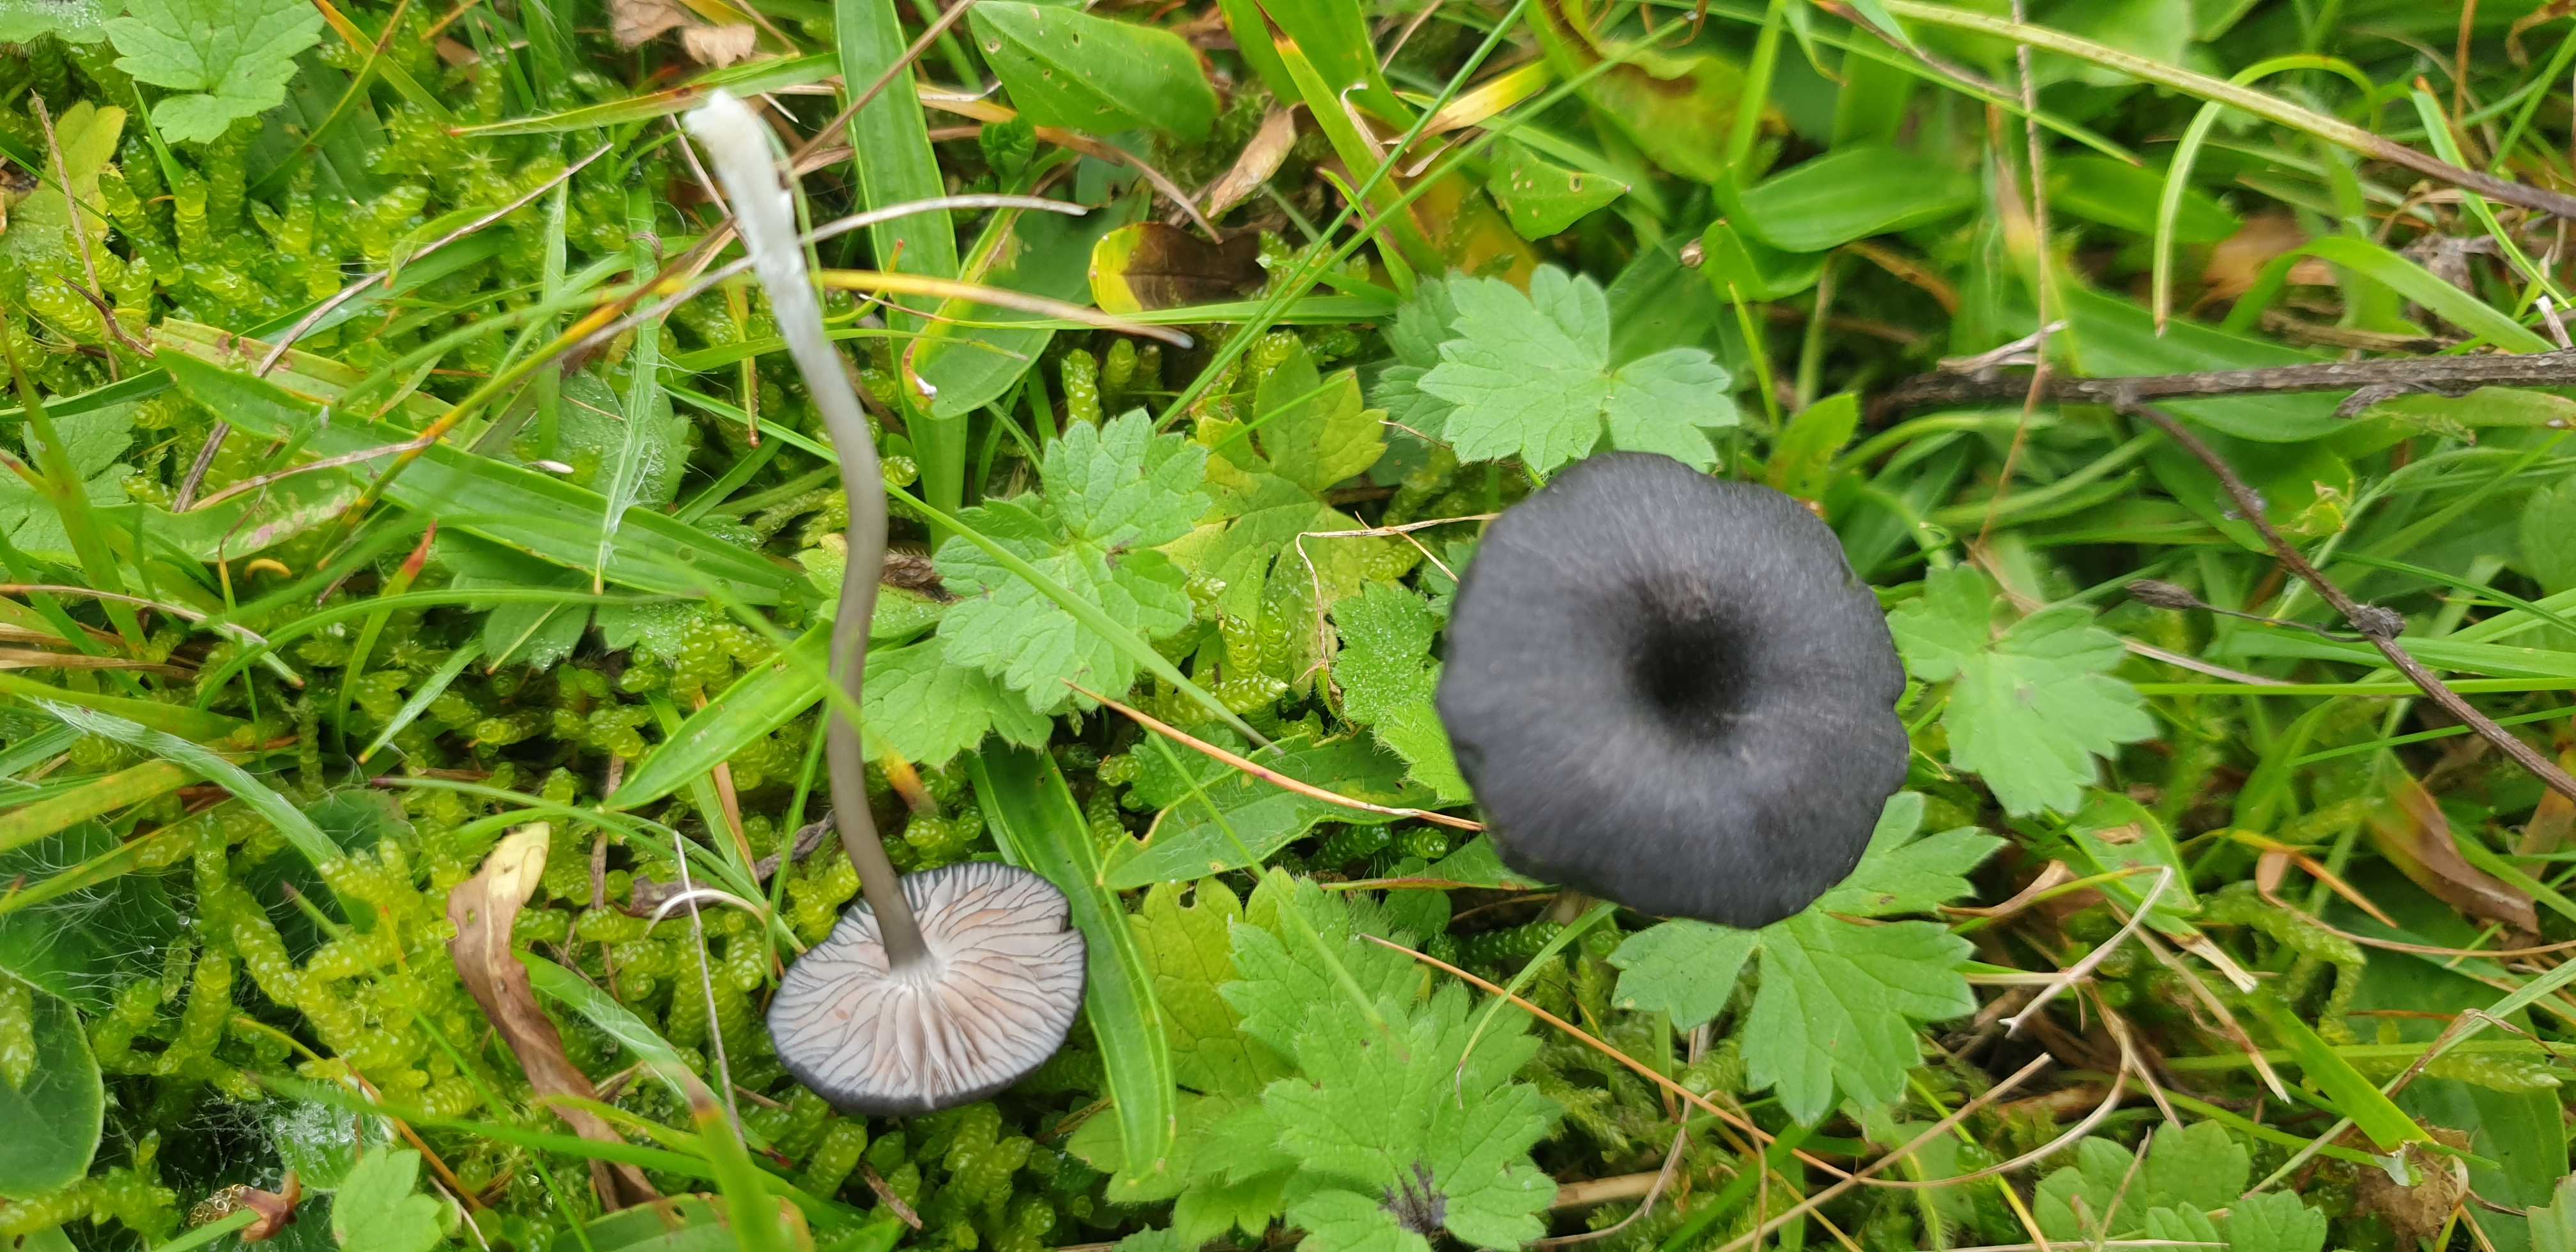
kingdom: Fungi
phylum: Basidiomycota
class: Agaricomycetes
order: Agaricales
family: Entolomataceae
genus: Entoloma
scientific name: Entoloma
